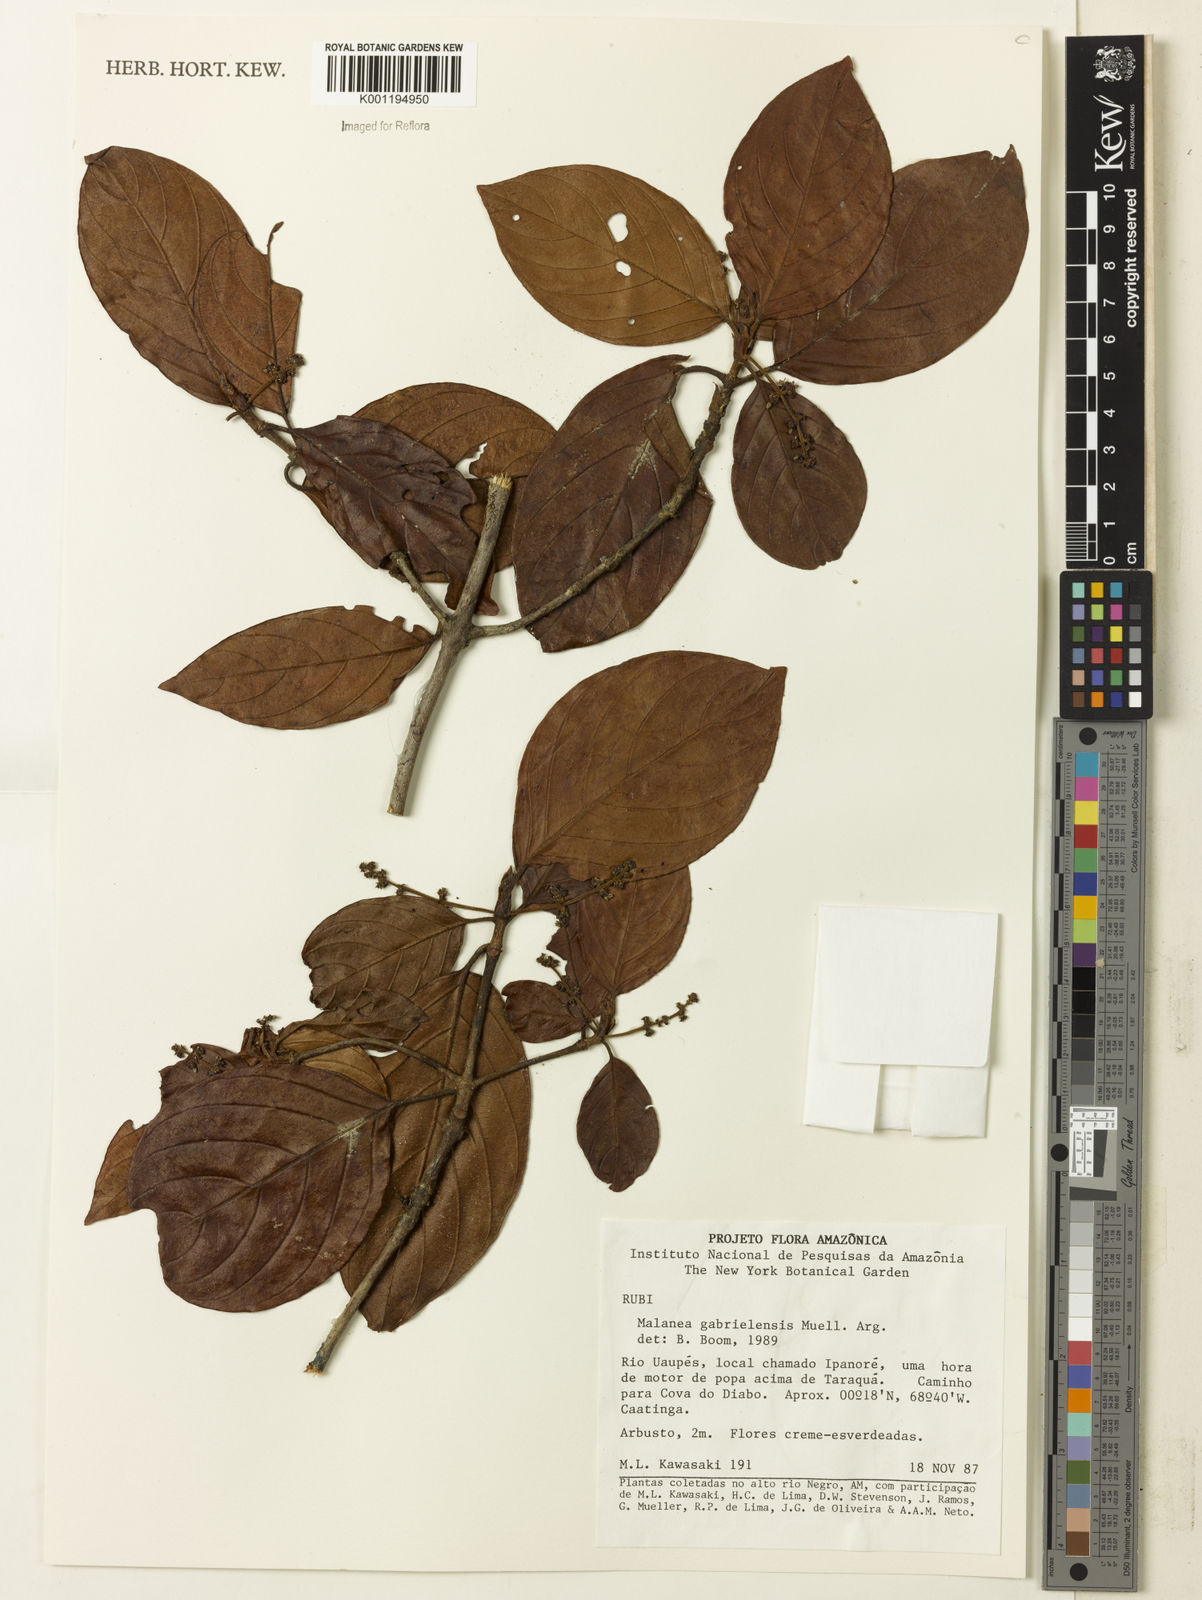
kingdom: Plantae
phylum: Tracheophyta
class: Magnoliopsida
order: Gentianales
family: Rubiaceae
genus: Malanea
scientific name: Malanea
